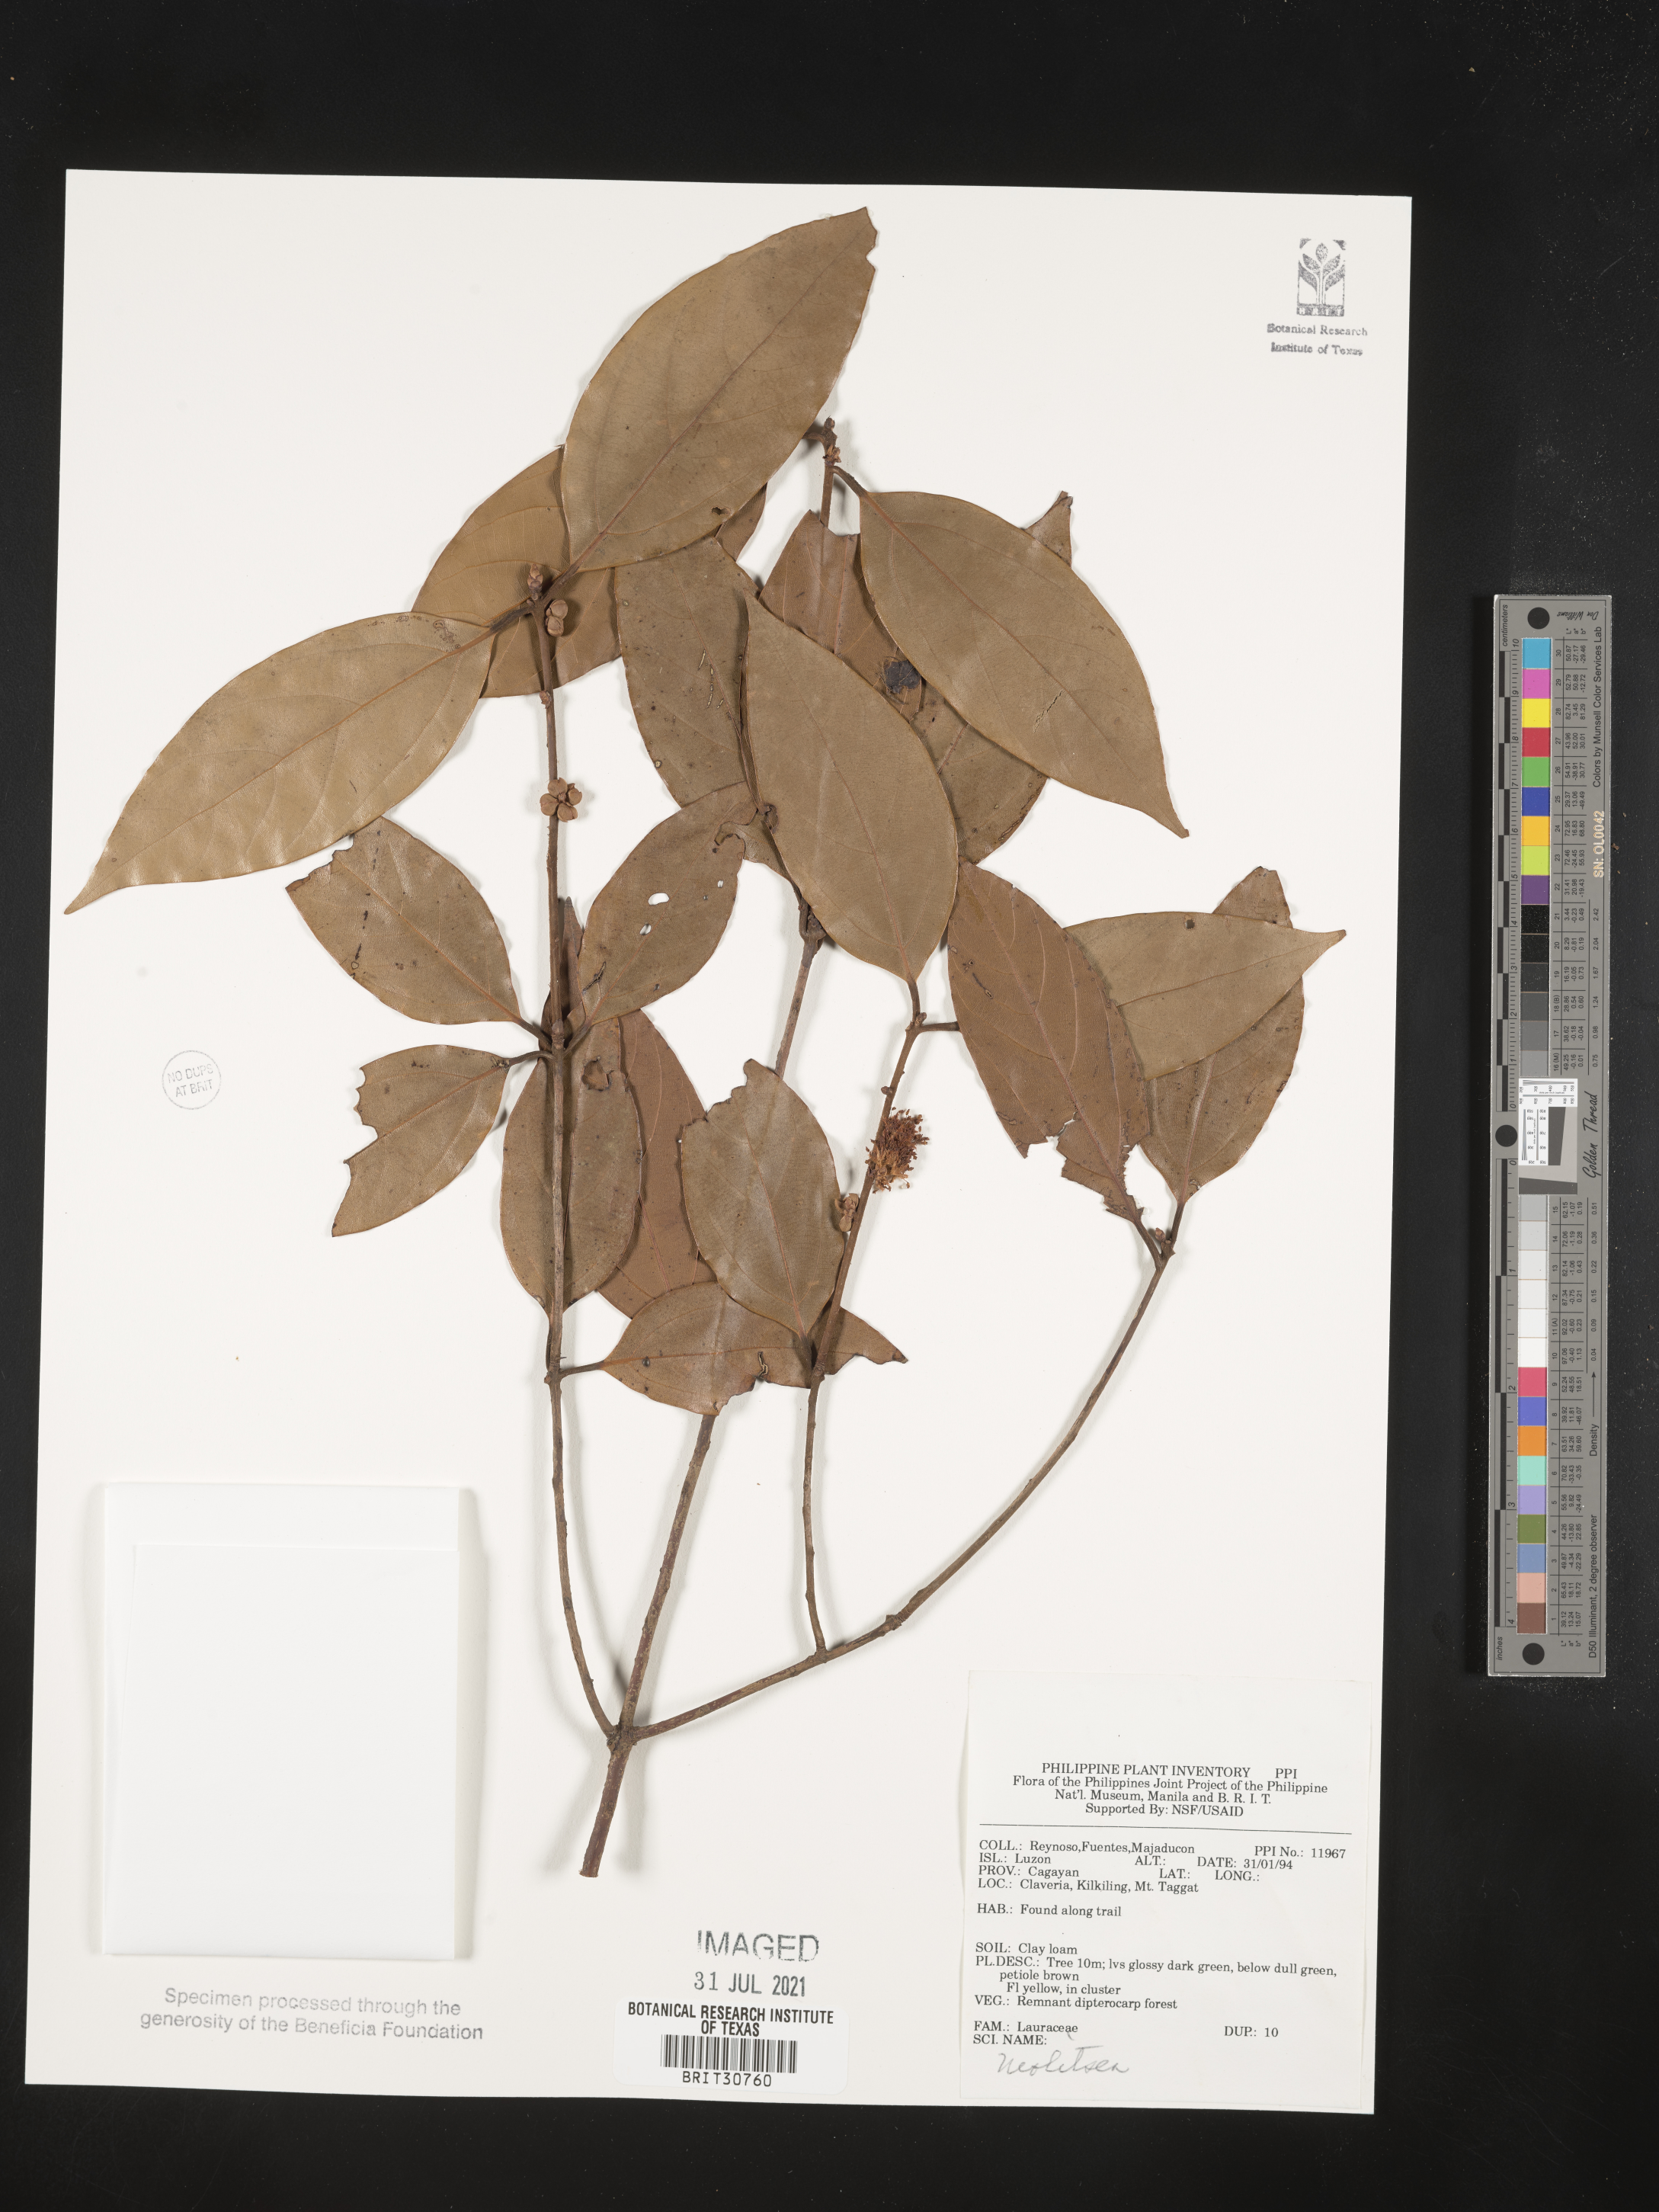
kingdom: Plantae
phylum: Tracheophyta
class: Magnoliopsida
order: Laurales
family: Lauraceae
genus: Neolitsea
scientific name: Neolitsea
